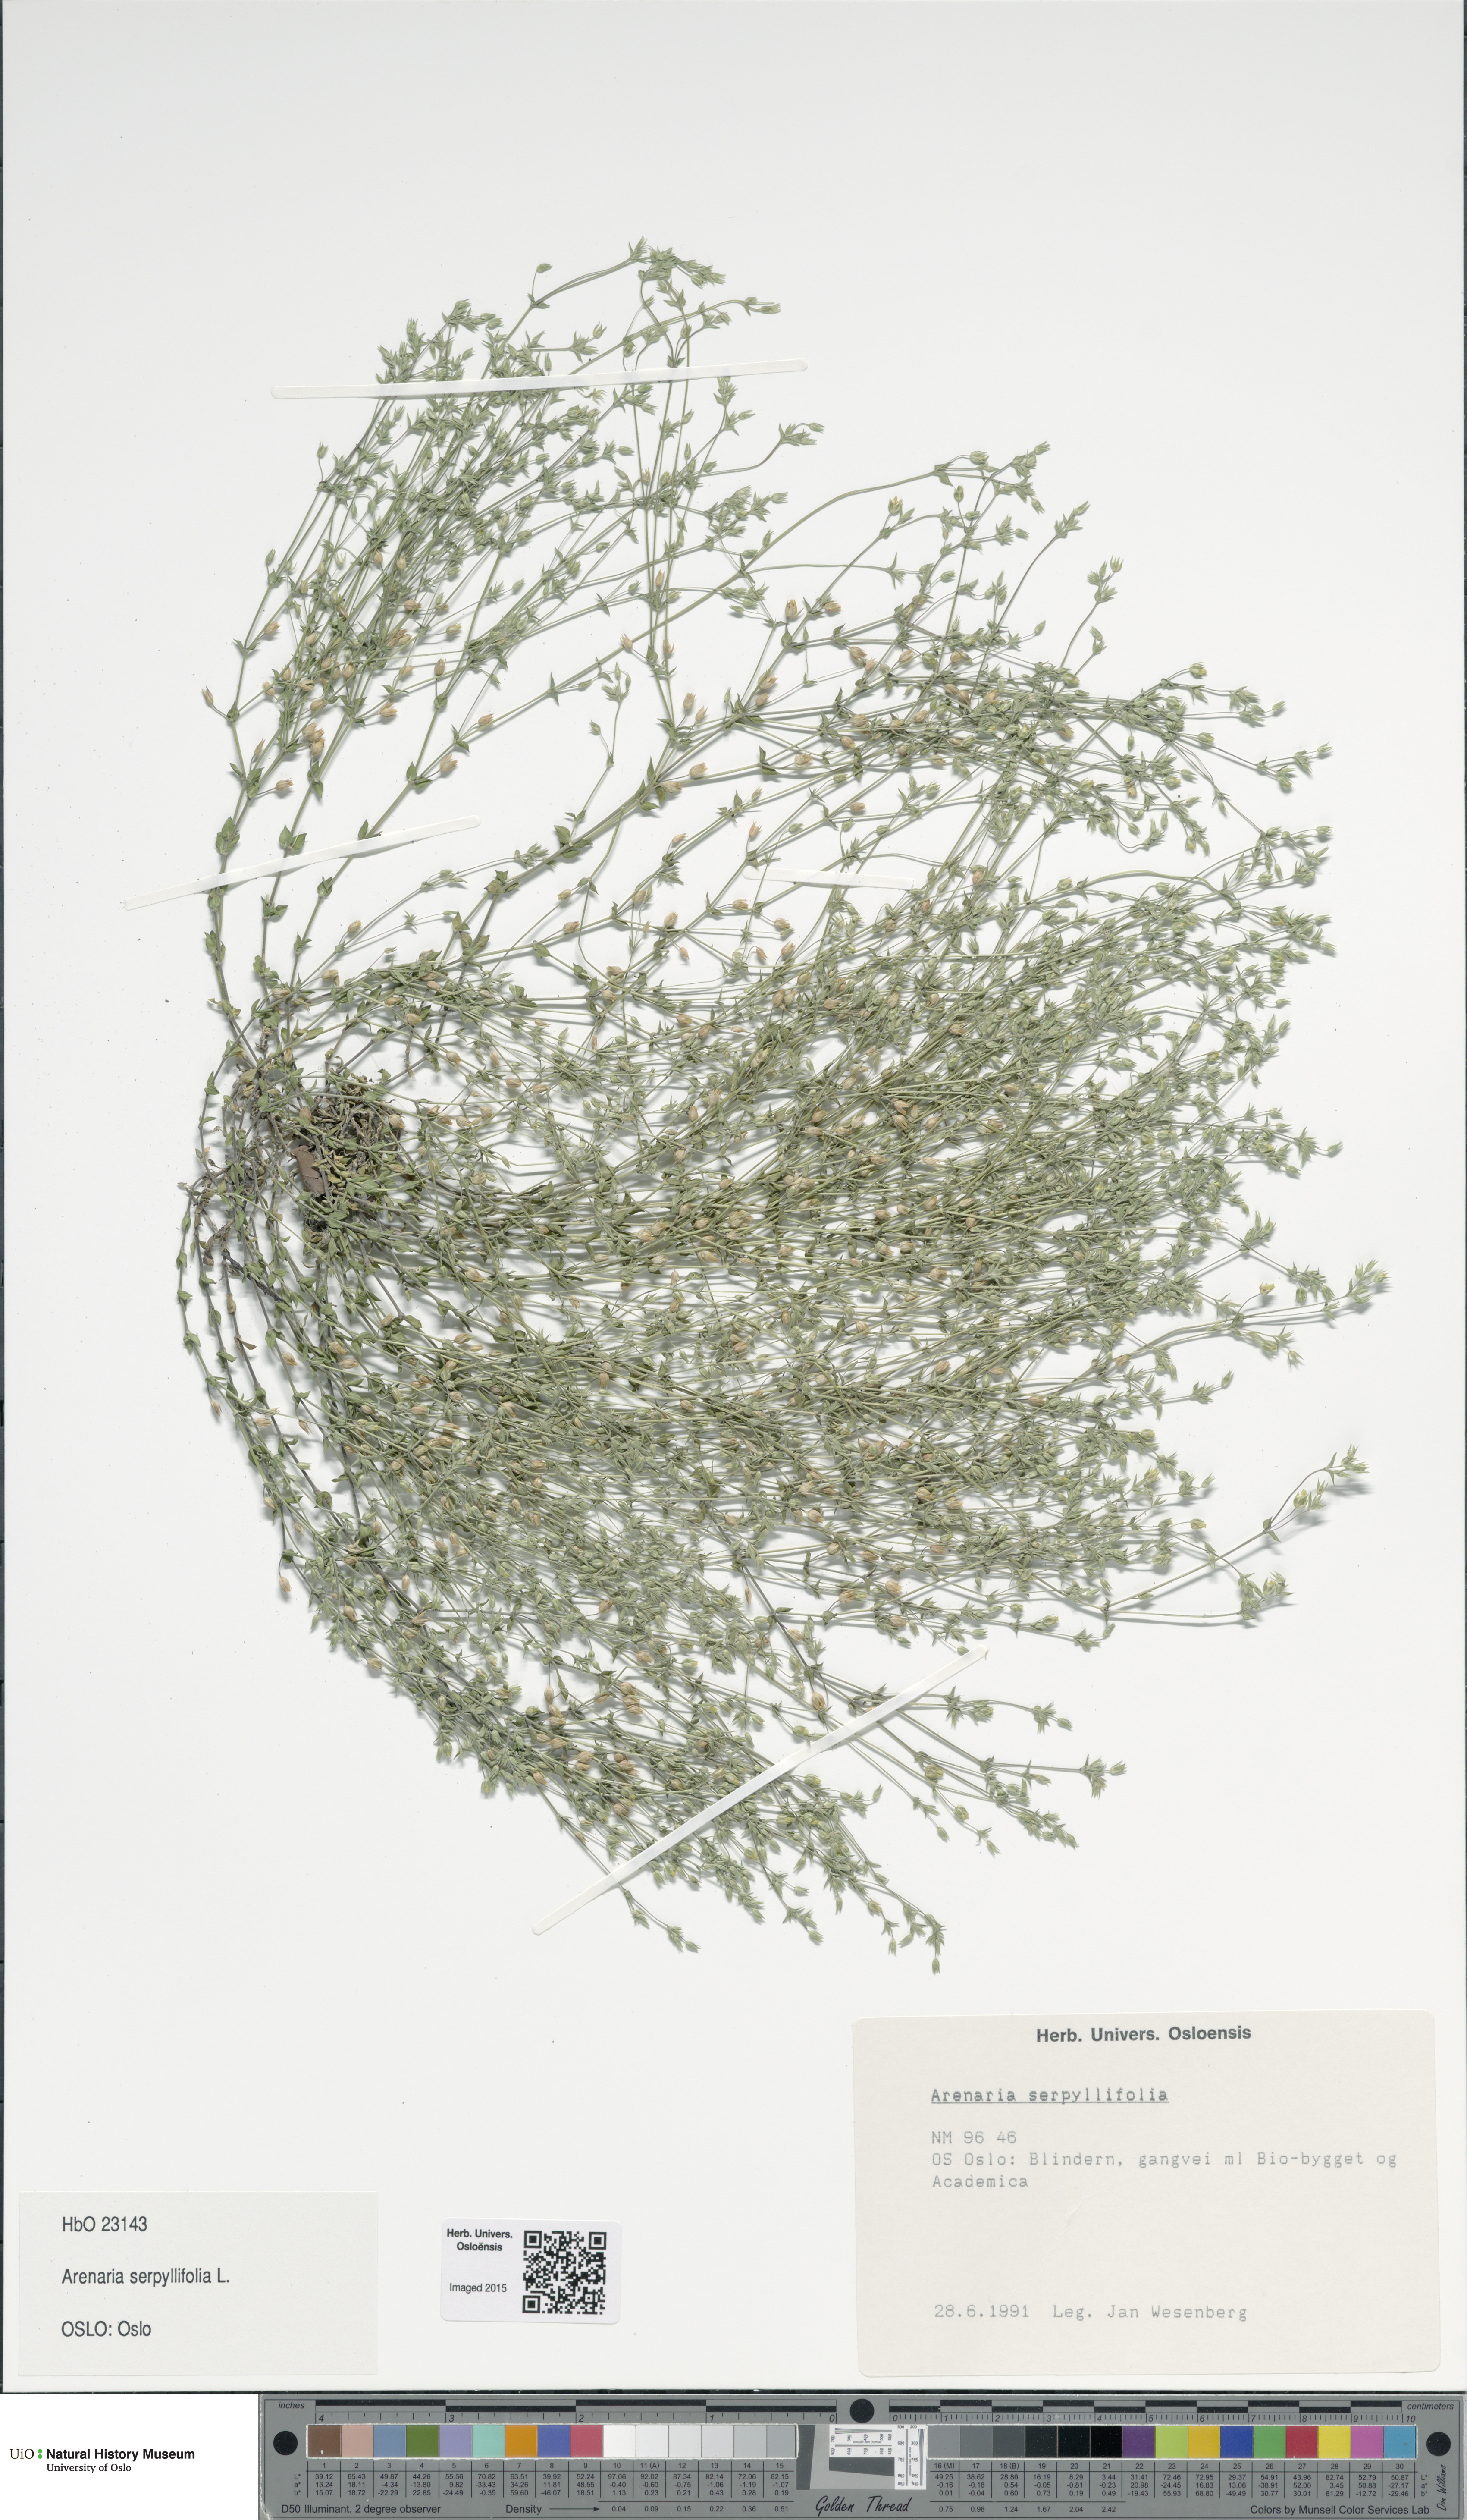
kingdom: Plantae
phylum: Tracheophyta
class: Magnoliopsida
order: Caryophyllales
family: Caryophyllaceae
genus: Arenaria
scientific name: Arenaria serpyllifolia
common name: Thyme-leaved sandwort
